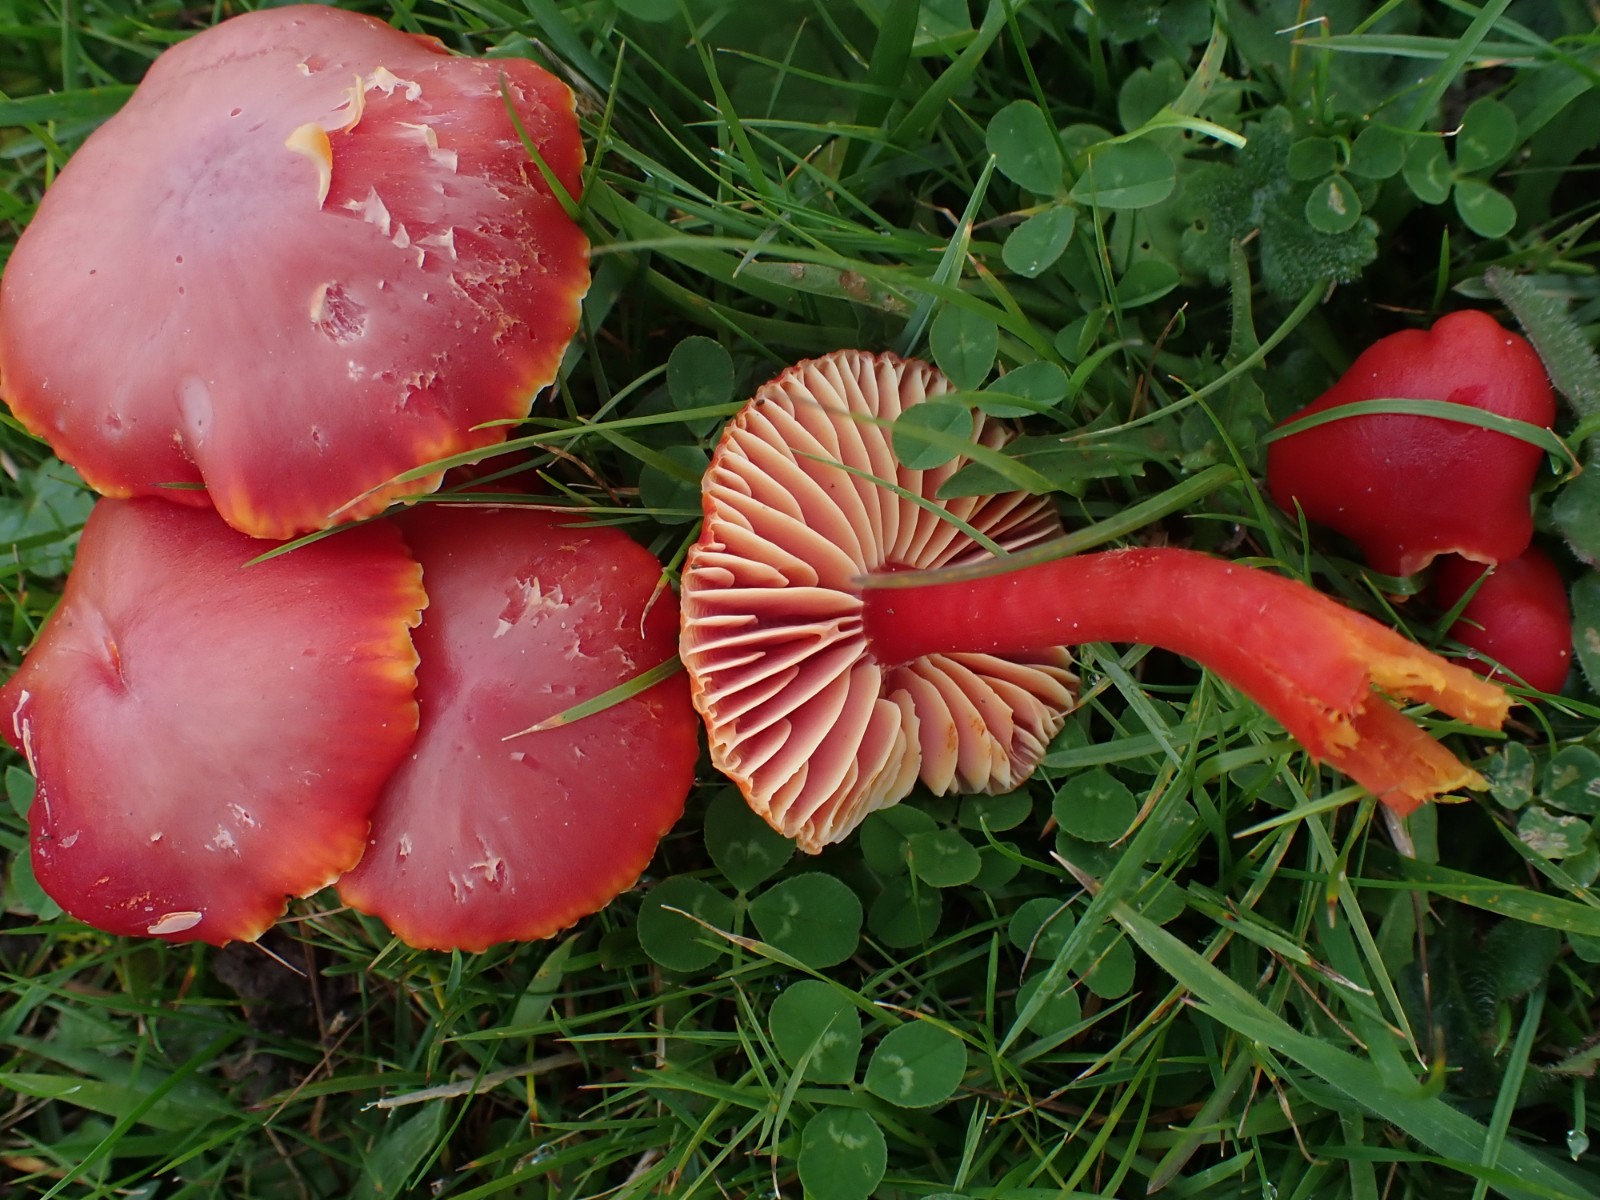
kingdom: Fungi
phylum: Basidiomycota
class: Agaricomycetes
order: Agaricales
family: Hygrophoraceae
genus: Hygrocybe
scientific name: Hygrocybe coccinea
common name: cinnober-vokshat
